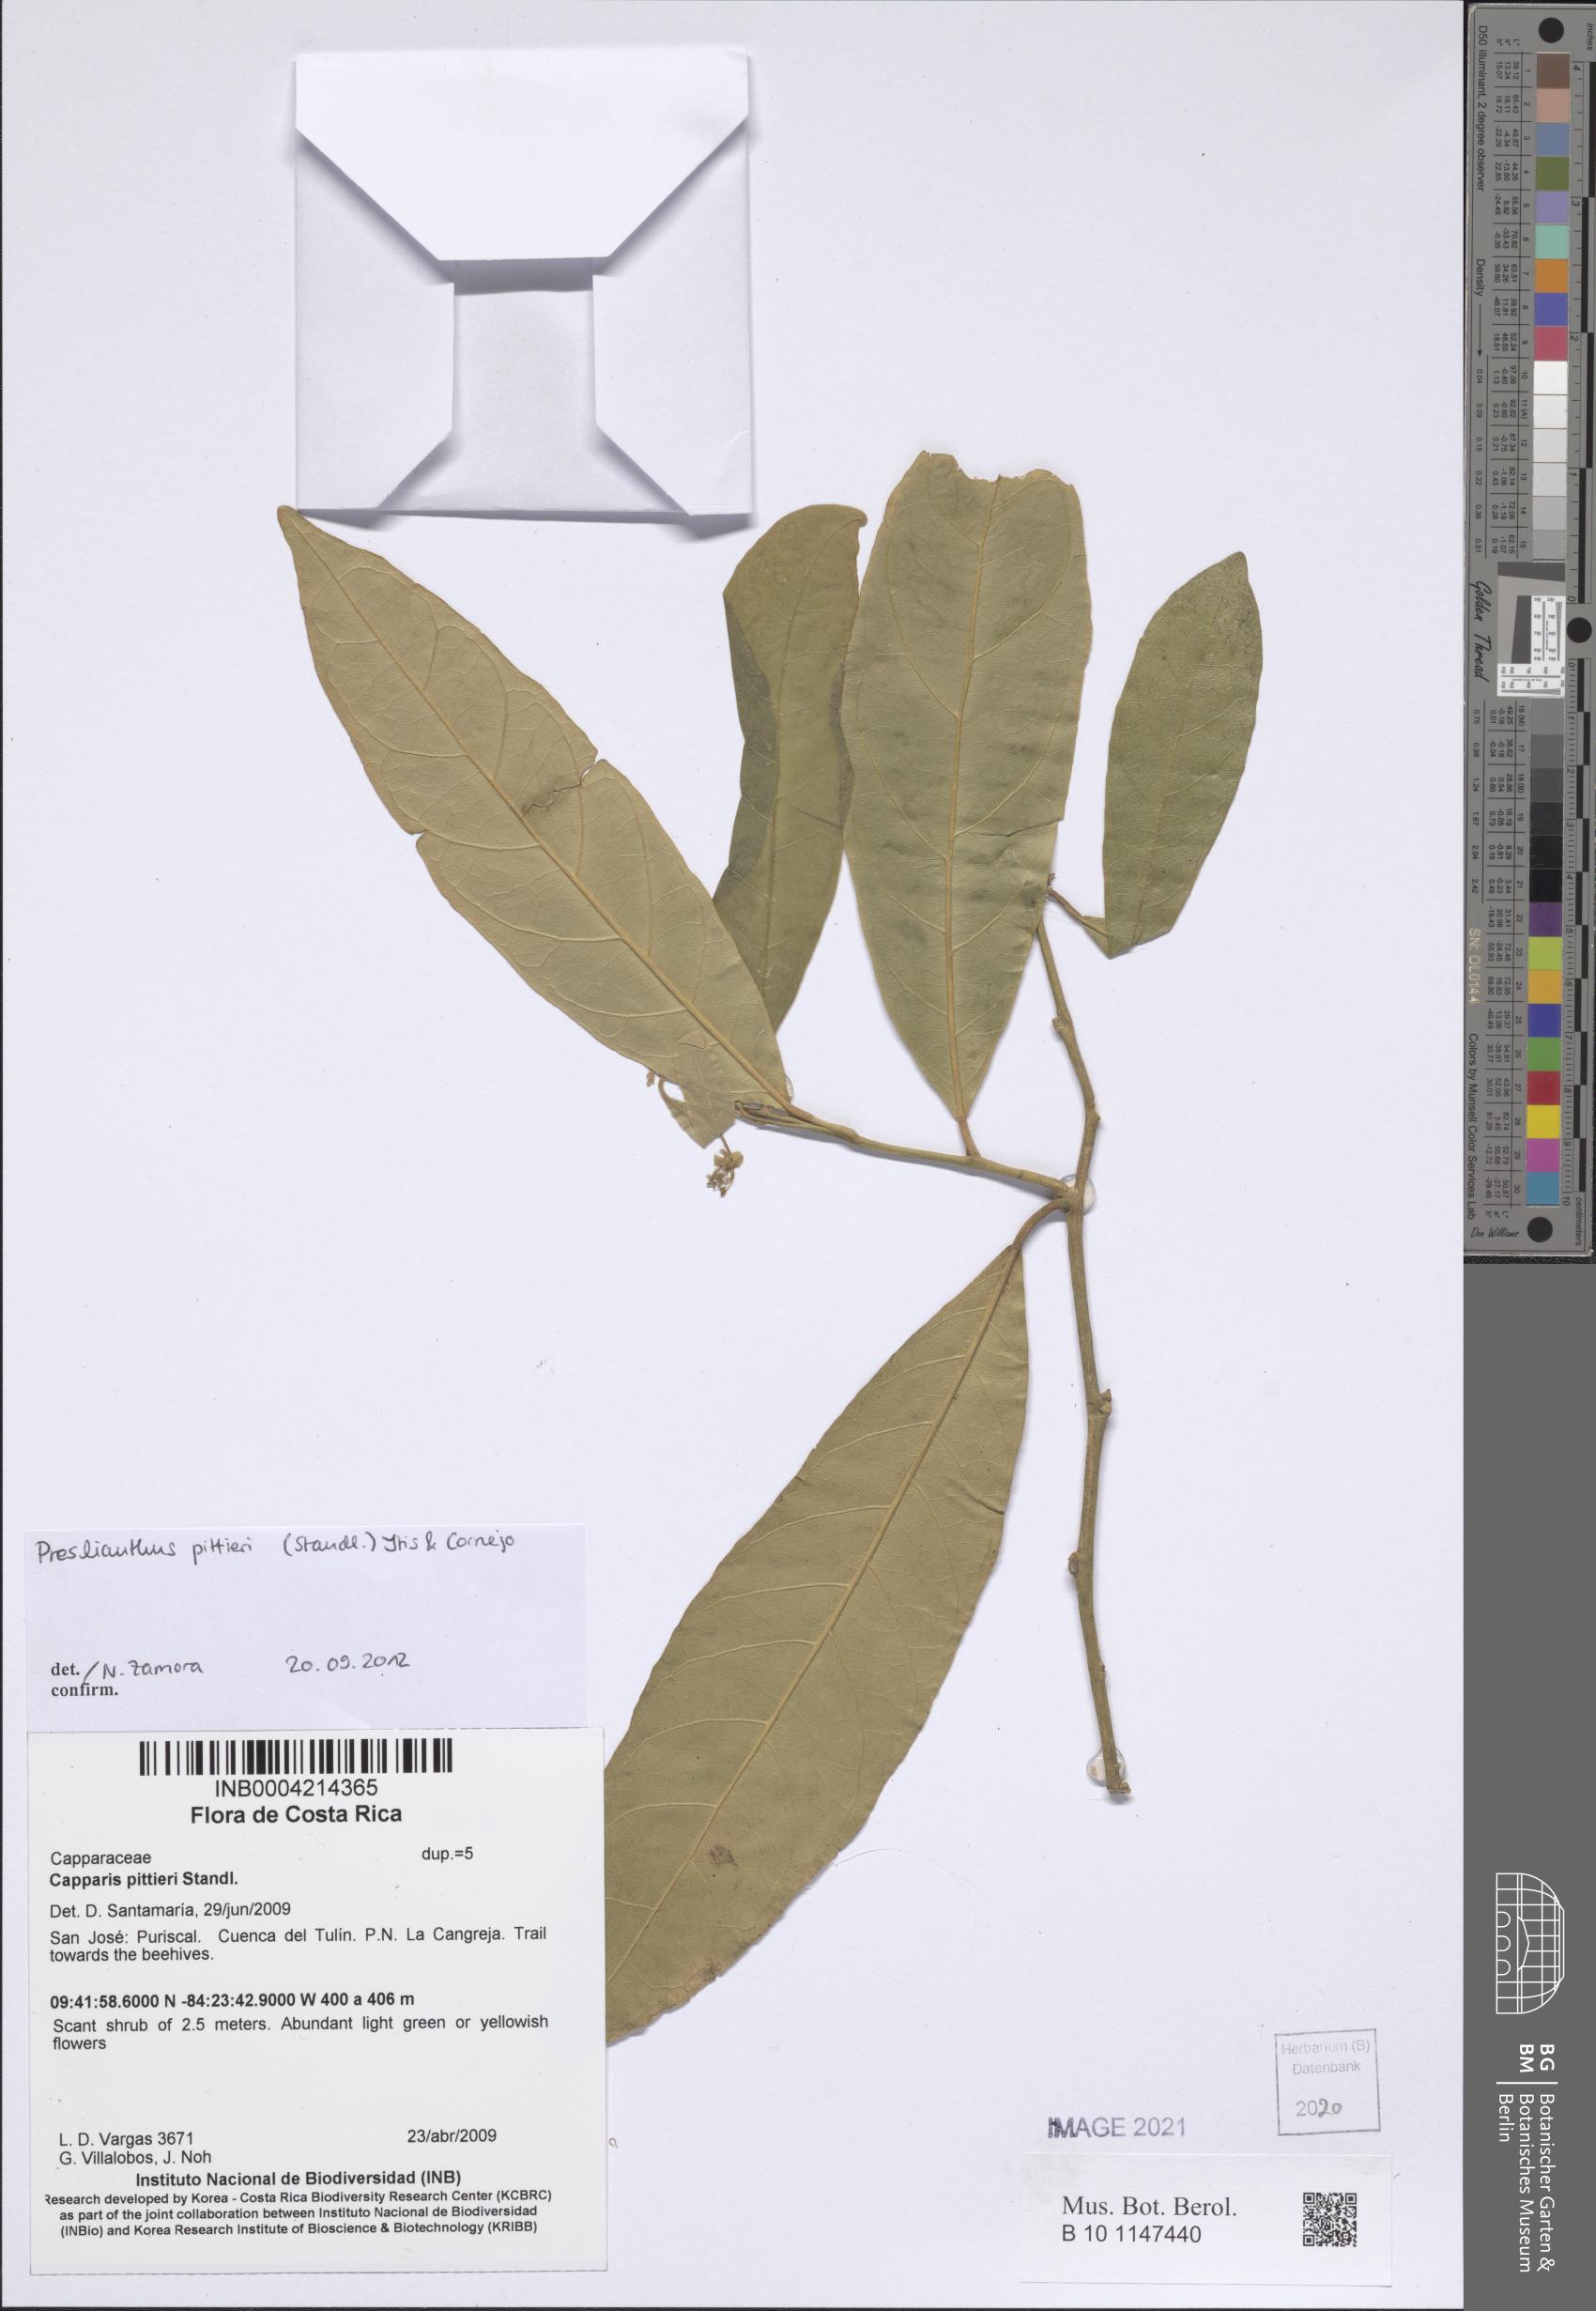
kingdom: Plantae
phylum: Tracheophyta
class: Magnoliopsida
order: Brassicales
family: Capparaceae
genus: Preslianthus
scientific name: Preslianthus pittieri
